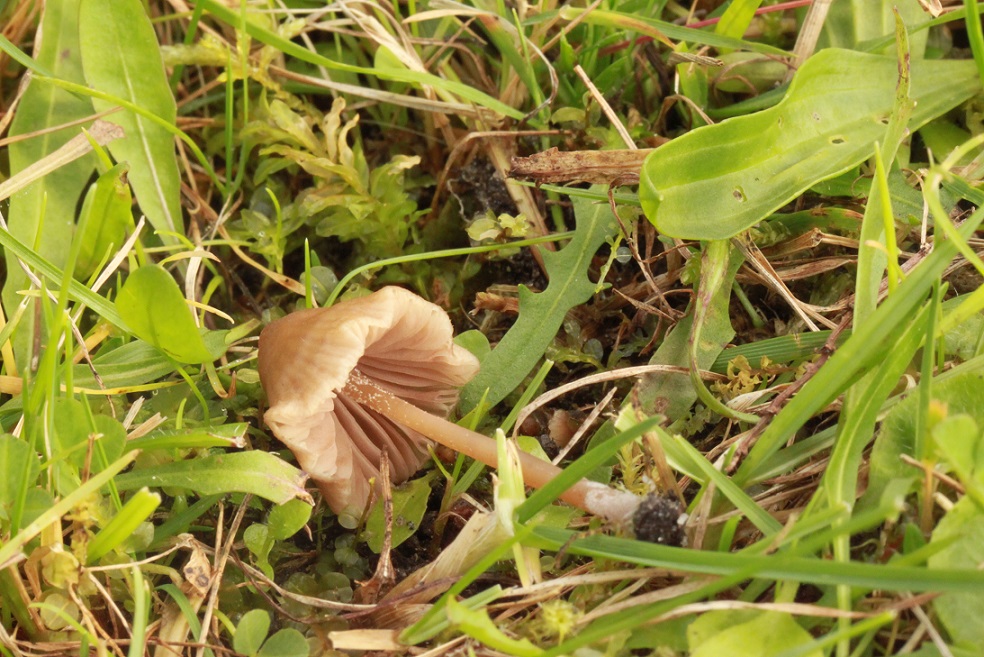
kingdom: Fungi
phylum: Basidiomycota
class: Agaricomycetes
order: Agaricales
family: Entolomataceae
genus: Entoloma
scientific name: Entoloma clandestinum
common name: tykbladet rødblad
